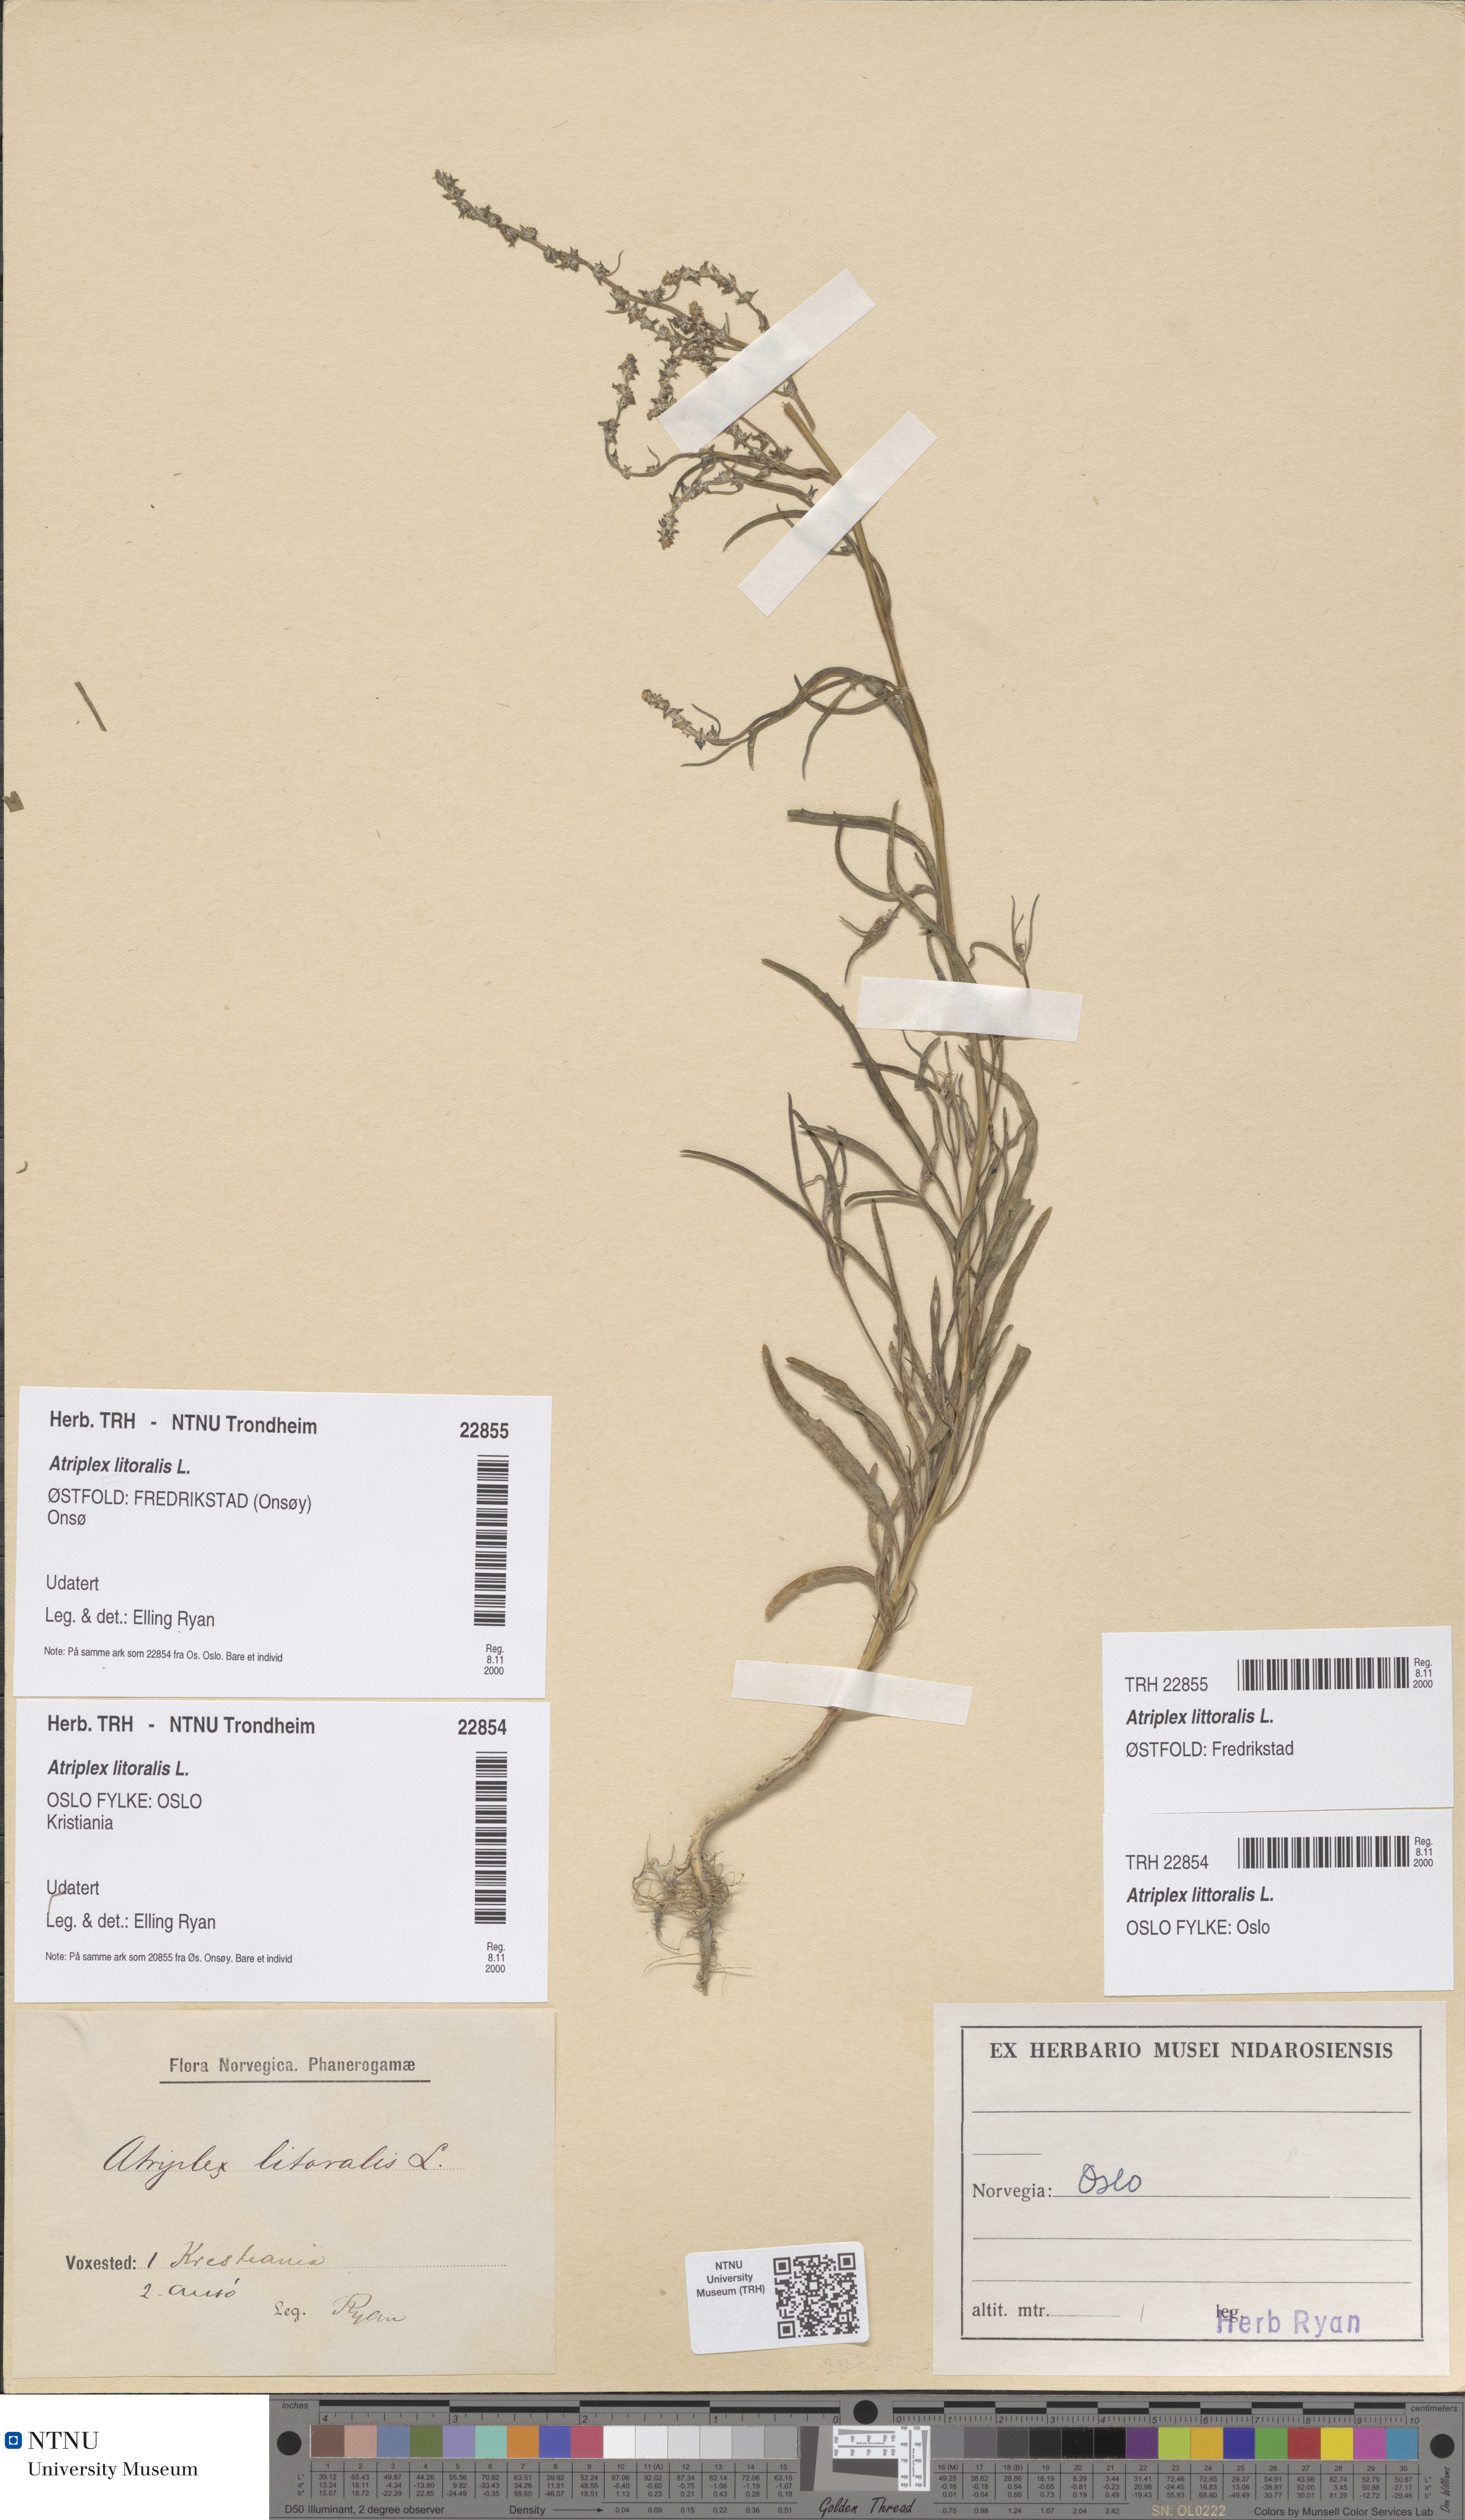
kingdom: Plantae
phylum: Tracheophyta
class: Magnoliopsida
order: Caryophyllales
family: Amaranthaceae
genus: Atriplex
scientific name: Atriplex littoralis
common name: Grass-leaved orache
